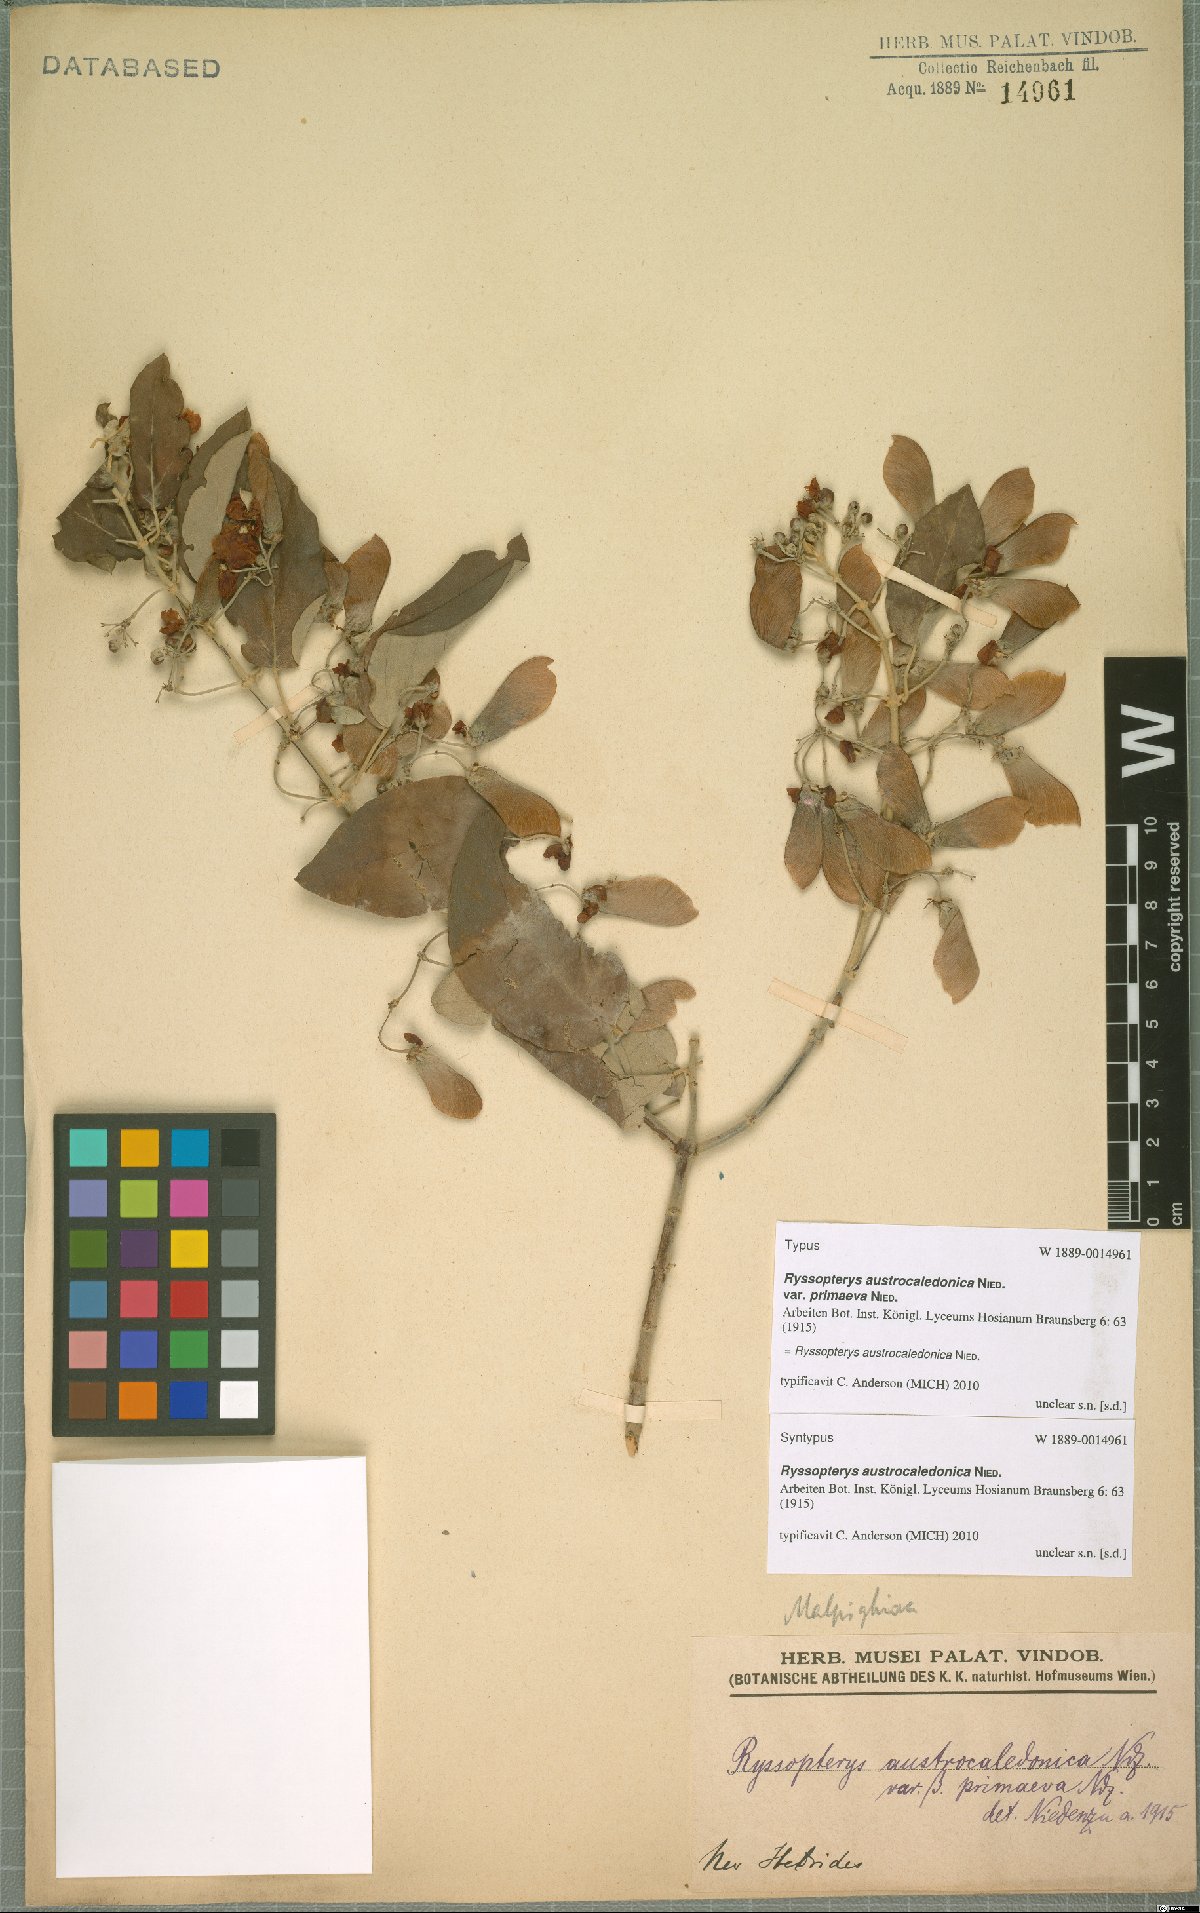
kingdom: Plantae
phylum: Tracheophyta
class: Magnoliopsida
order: Malpighiales
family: Malpighiaceae
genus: Stigmaphyllon
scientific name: Stigmaphyllon discolor
